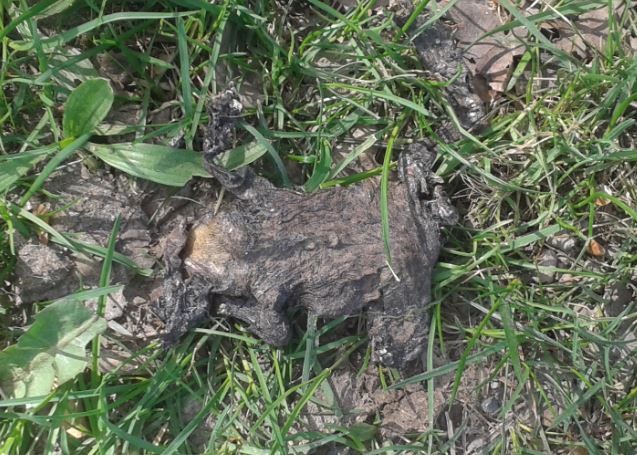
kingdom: Animalia
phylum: Chordata
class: Amphibia
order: Anura
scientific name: Anura
